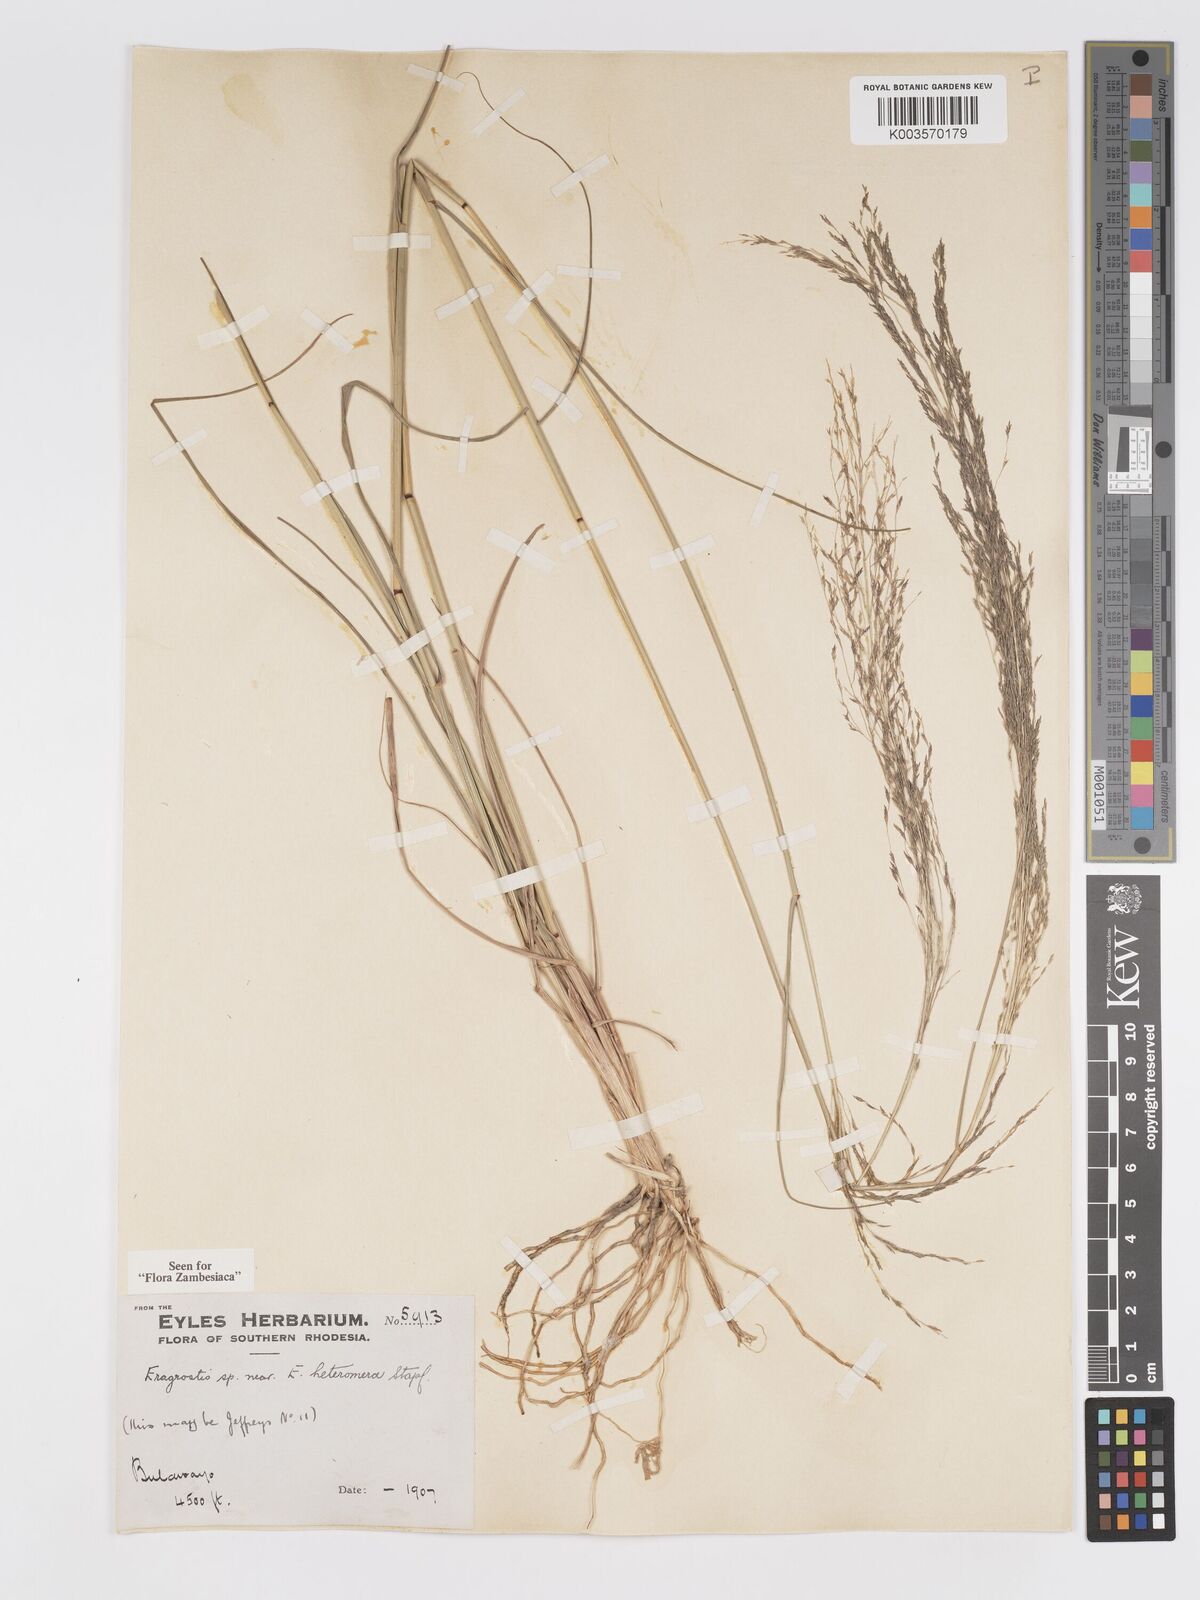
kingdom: Plantae
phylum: Tracheophyta
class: Liliopsida
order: Poales
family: Poaceae
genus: Eragrostis
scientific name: Eragrostis heteromera
